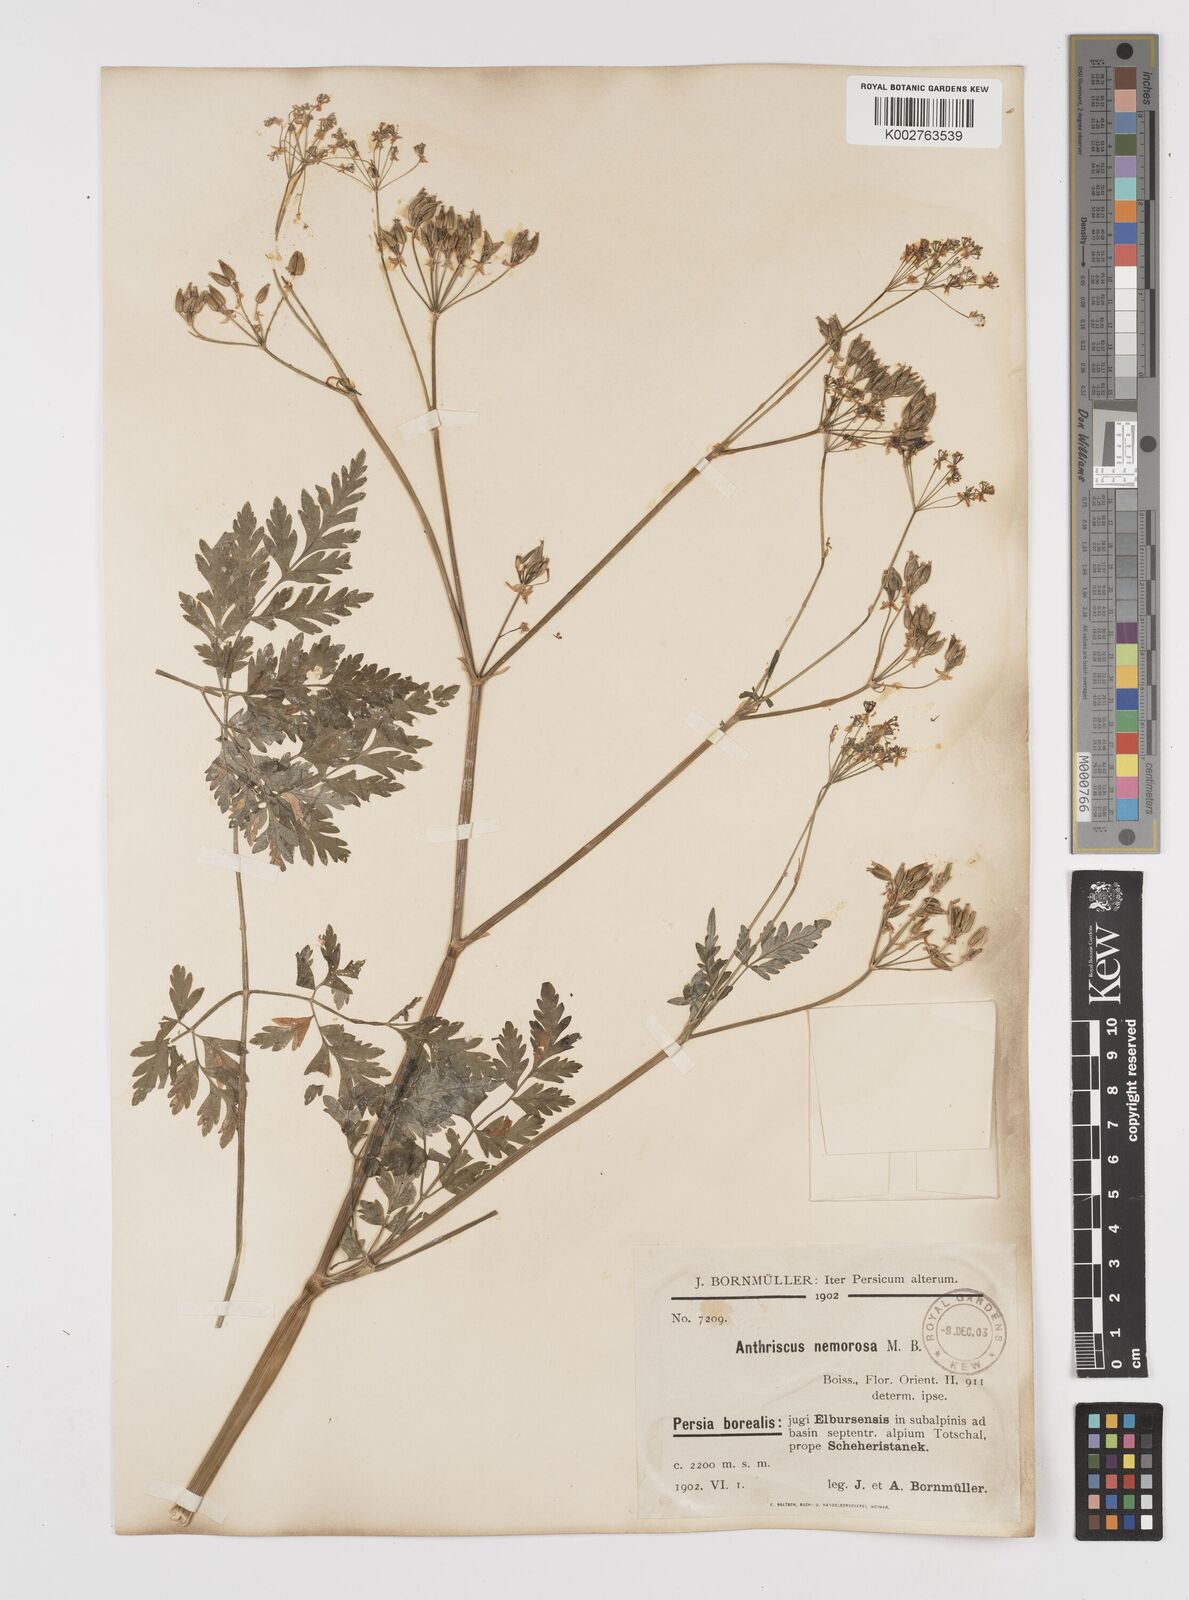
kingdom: Plantae
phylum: Tracheophyta
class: Magnoliopsida
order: Apiales
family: Apiaceae
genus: Anthriscus
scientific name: Anthriscus sylvestris
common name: Cow parsley
